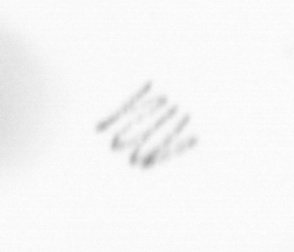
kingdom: Chromista
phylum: Ochrophyta
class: Bacillariophyceae
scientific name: Bacillariophyceae
